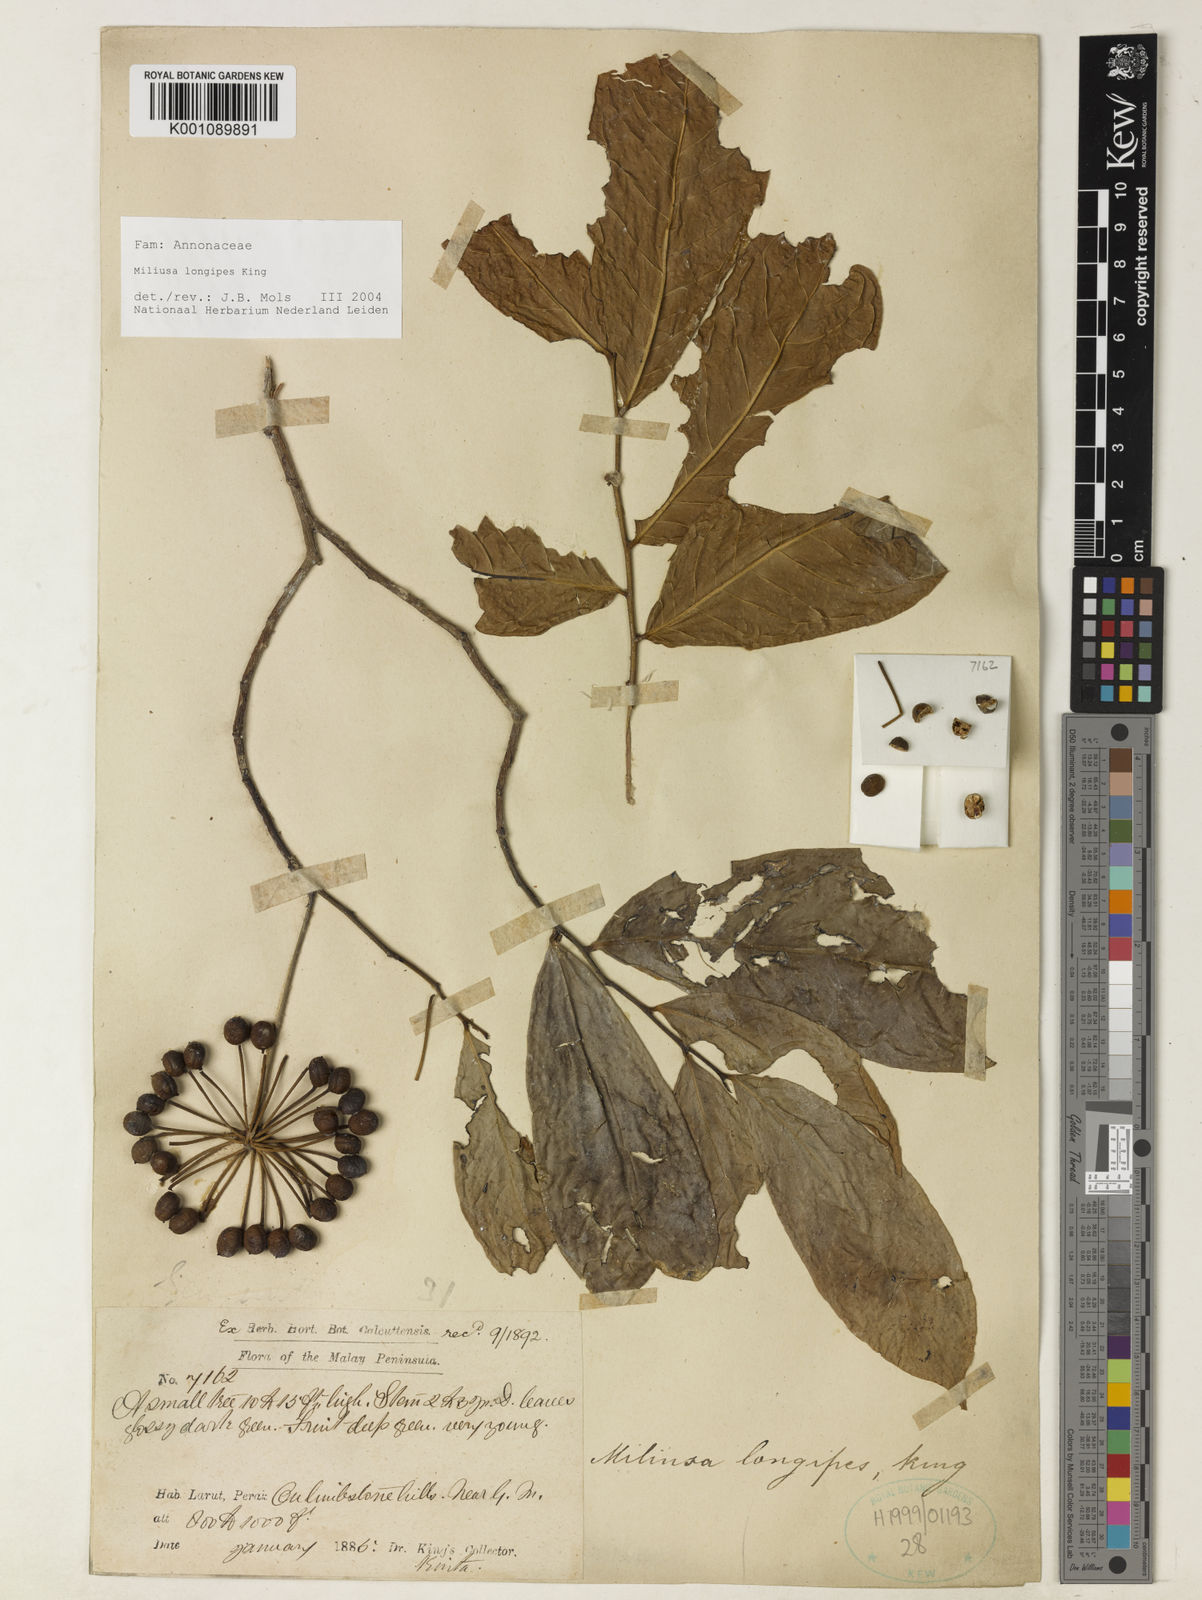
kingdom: Plantae
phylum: Tracheophyta
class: Magnoliopsida
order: Magnoliales
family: Annonaceae
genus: Miliusa
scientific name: Miliusa longipes
